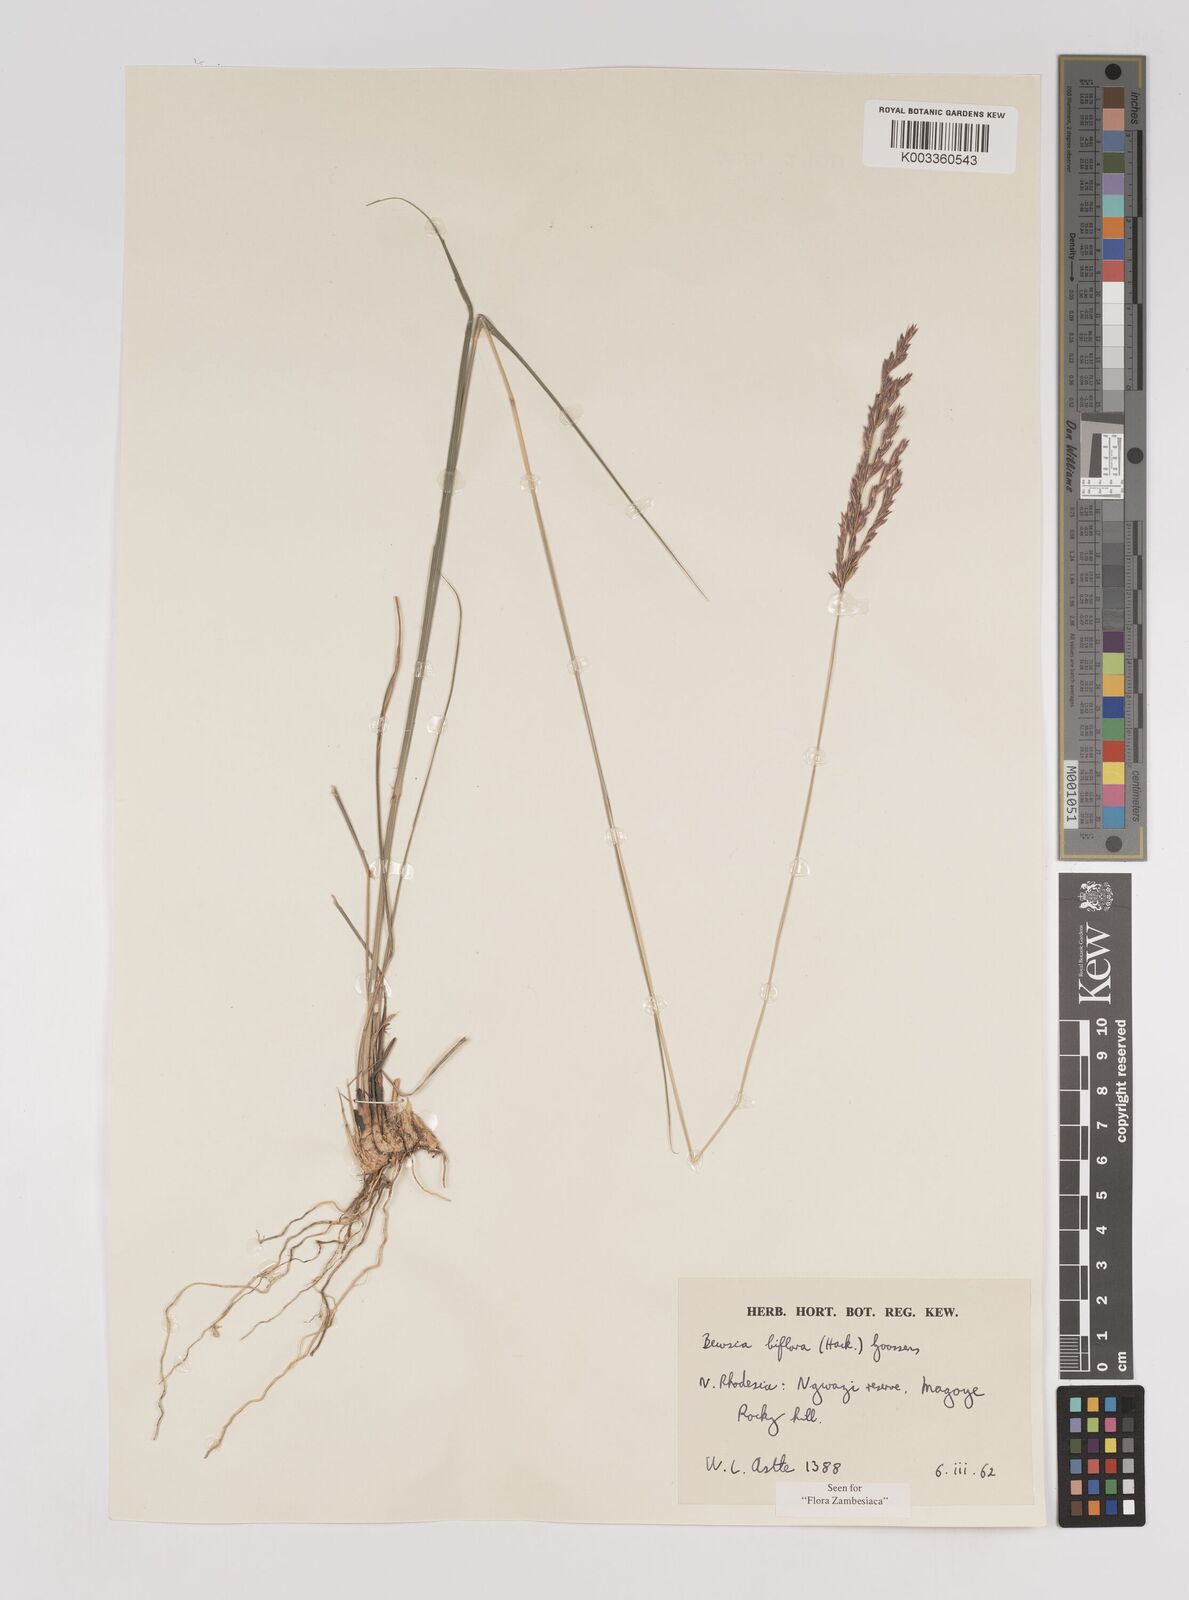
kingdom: Plantae
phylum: Tracheophyta
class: Liliopsida
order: Poales
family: Poaceae
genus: Bewsia
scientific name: Bewsia biflora
